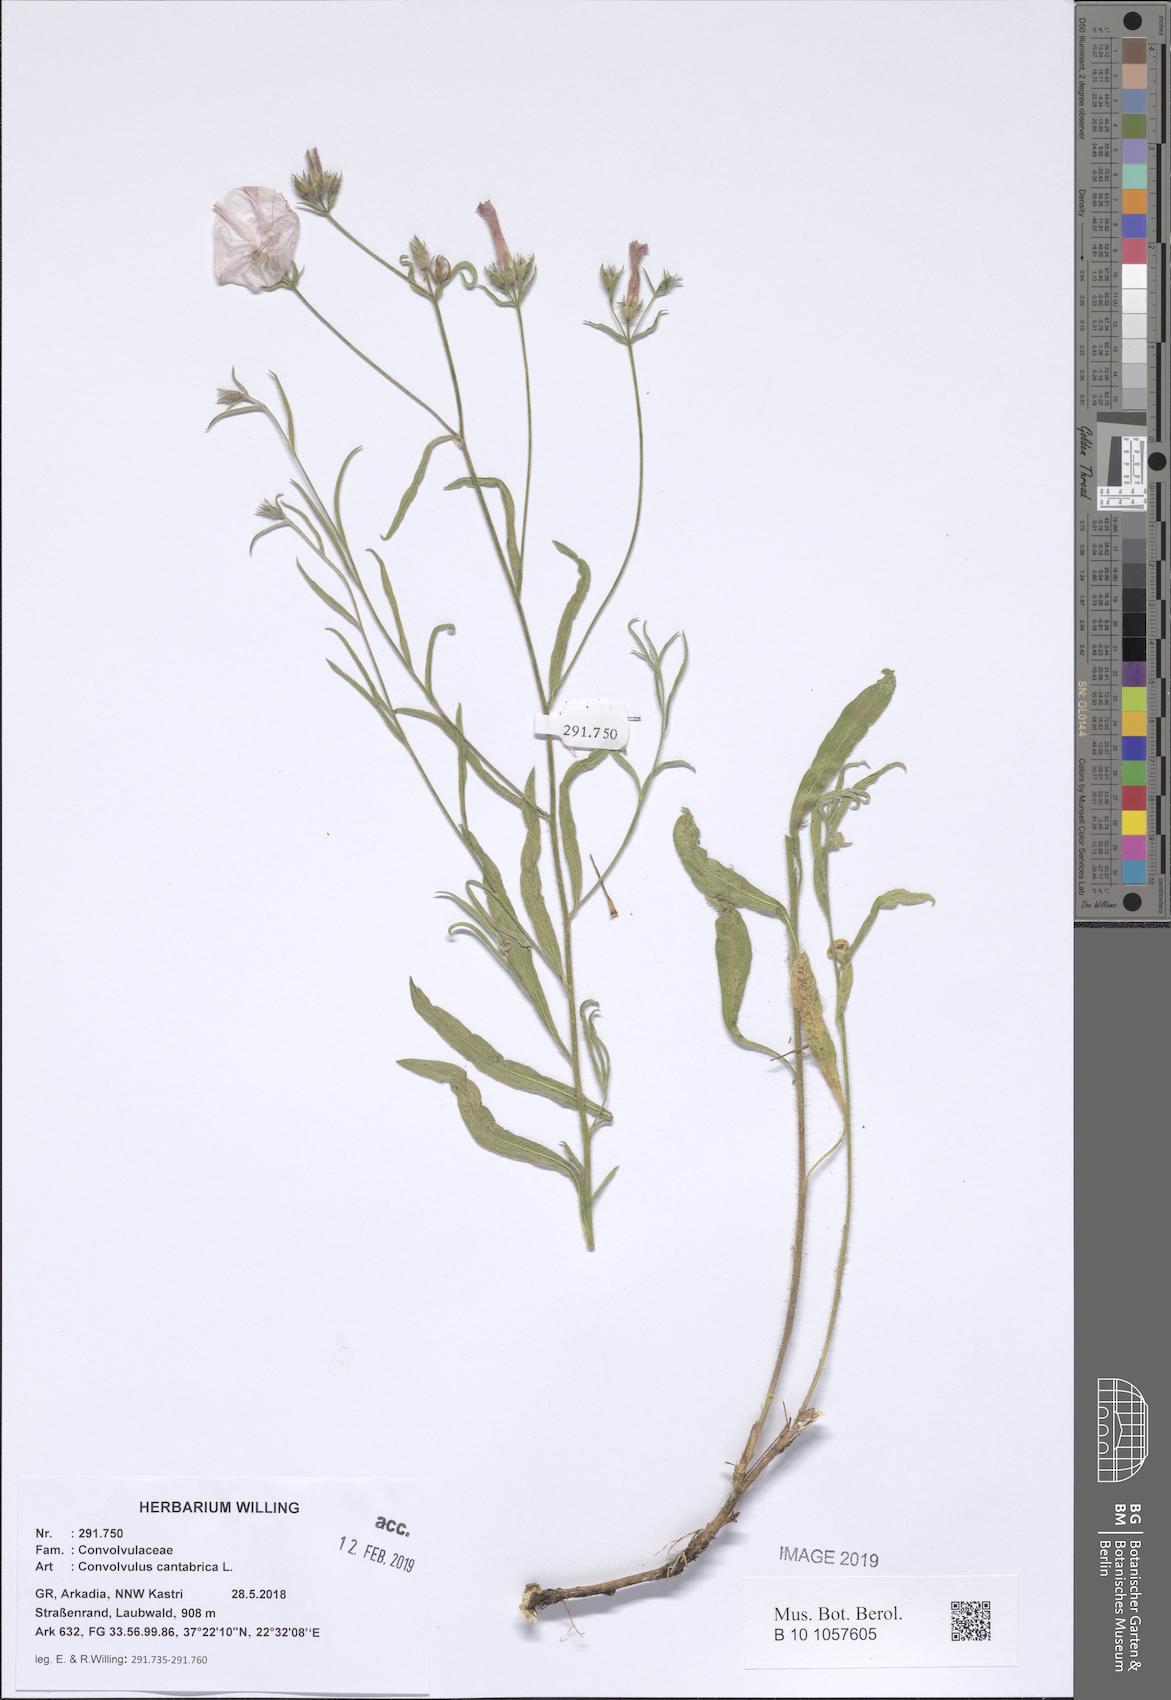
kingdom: Plantae
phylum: Tracheophyta
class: Magnoliopsida
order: Solanales
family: Convolvulaceae
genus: Convolvulus
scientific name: Convolvulus cantabrica
